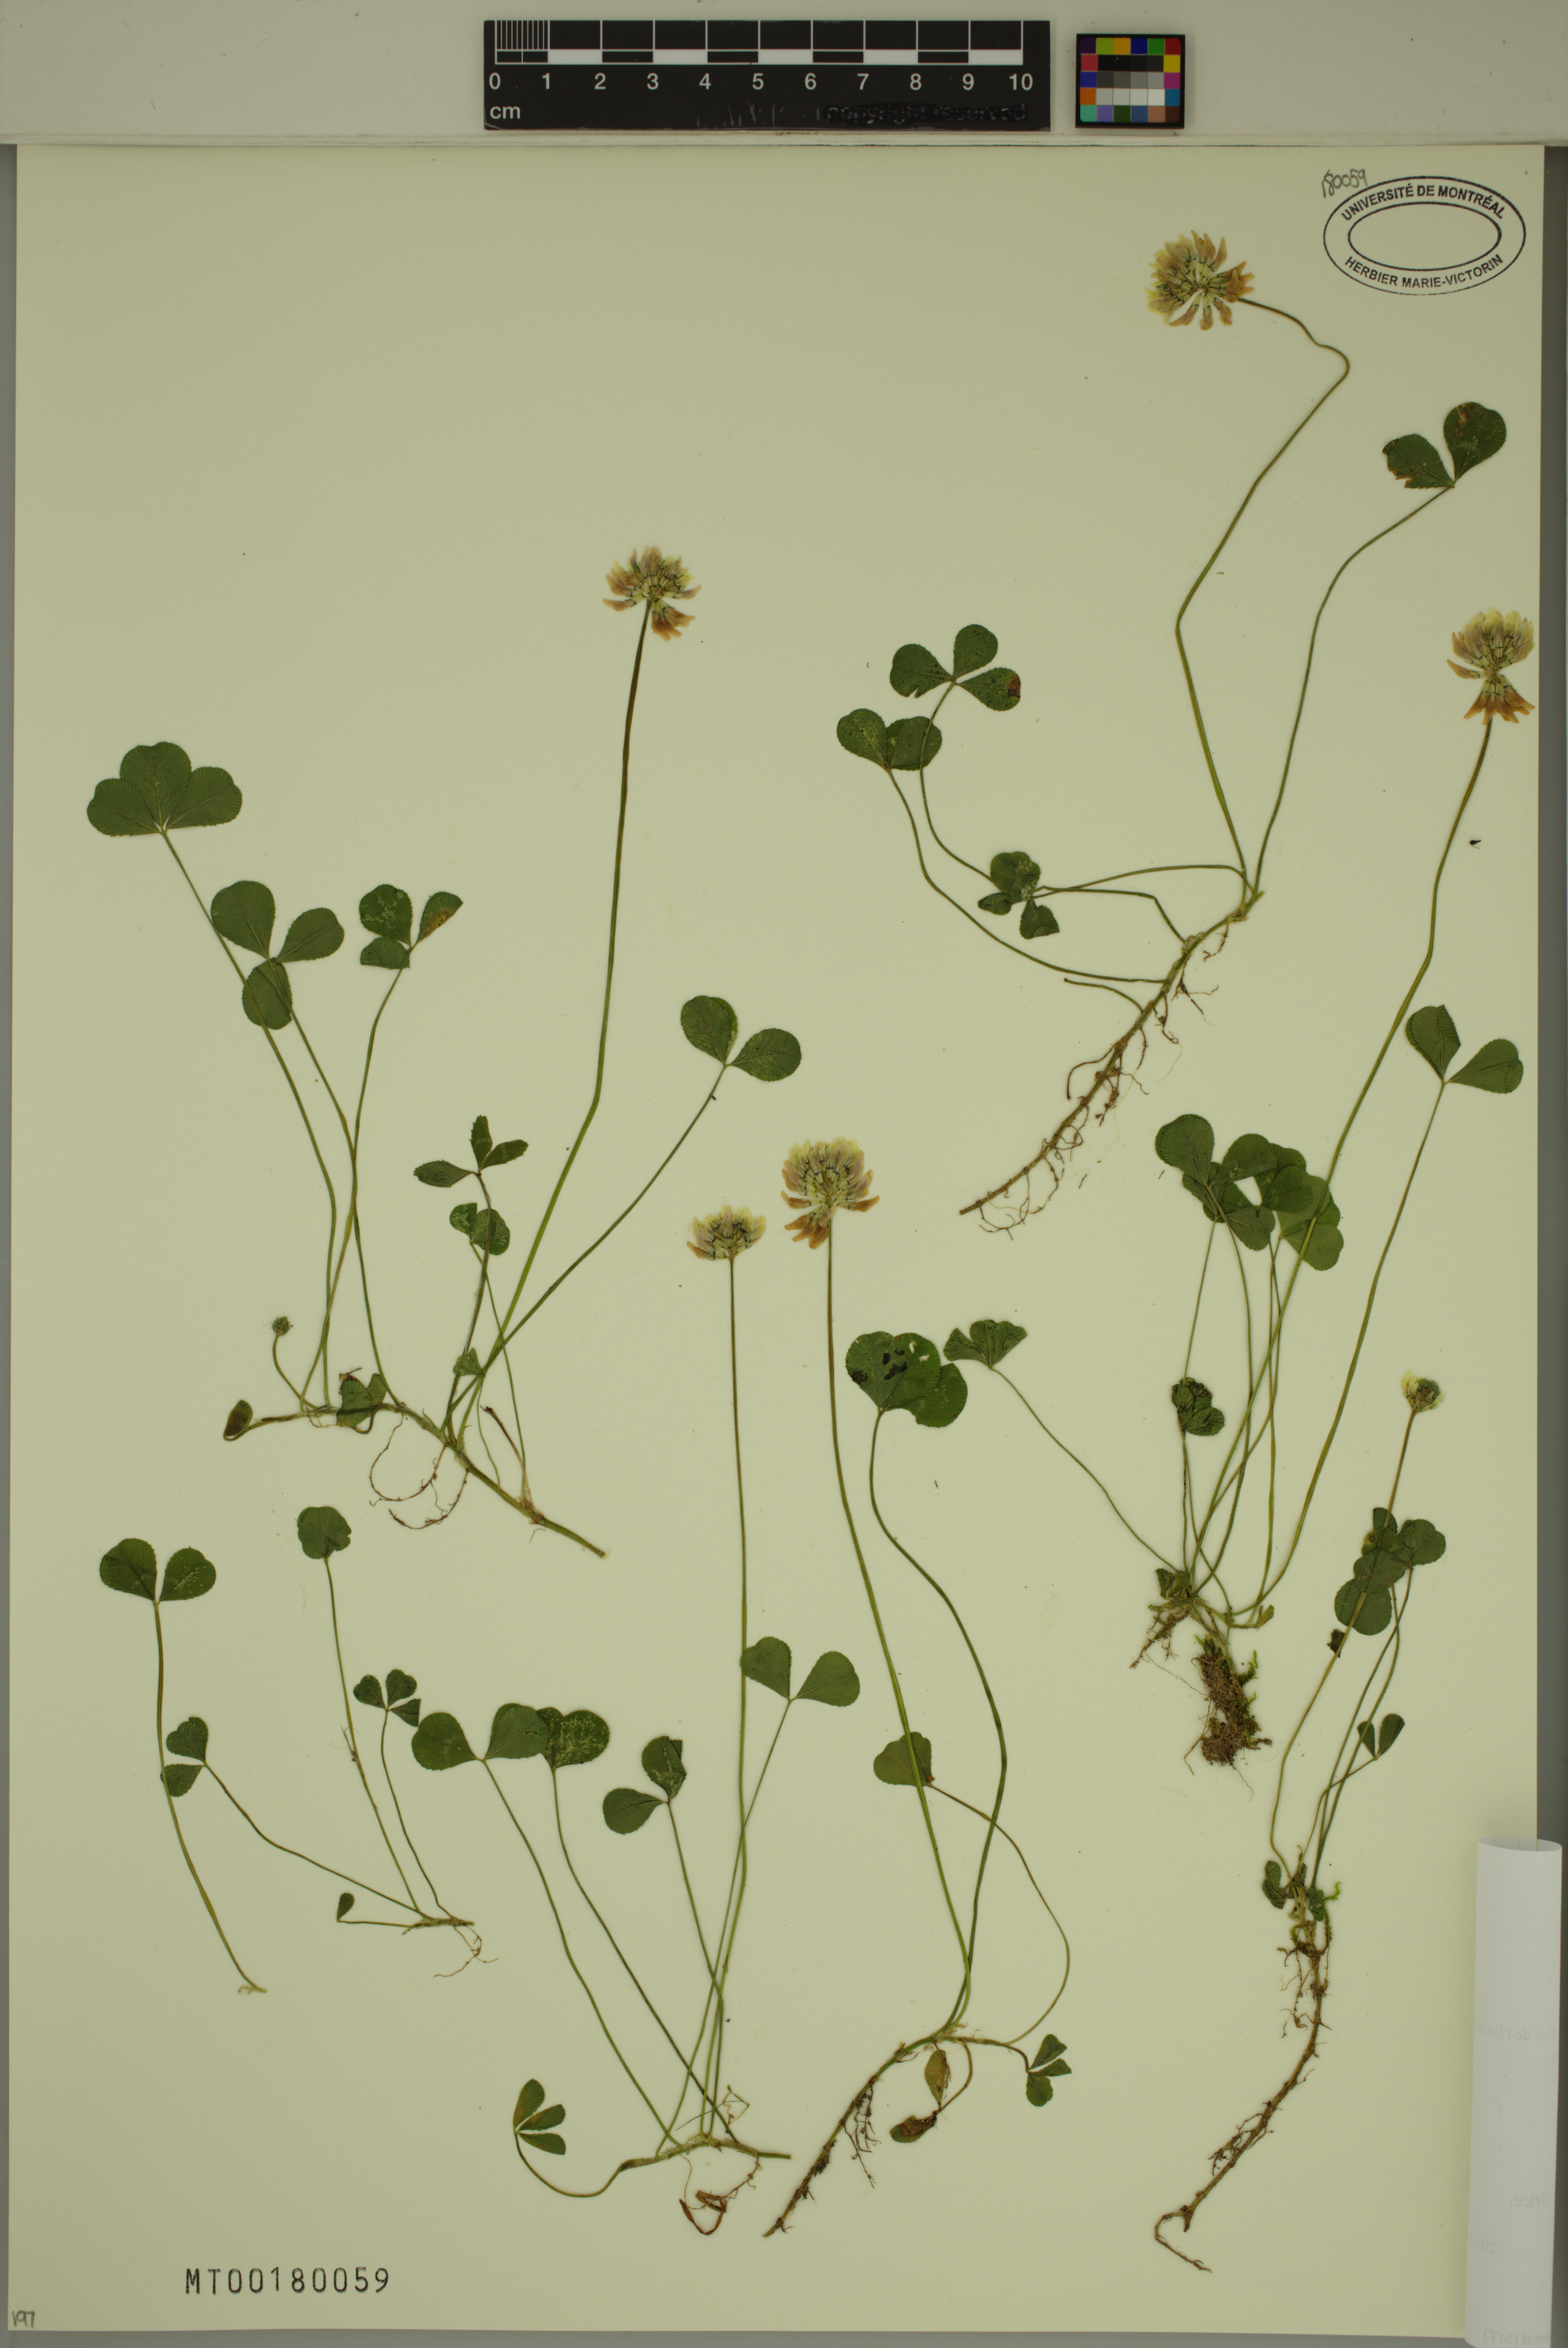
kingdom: Plantae
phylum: Tracheophyta
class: Magnoliopsida
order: Fabales
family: Fabaceae
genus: Trifolium
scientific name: Trifolium repens
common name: White clover
